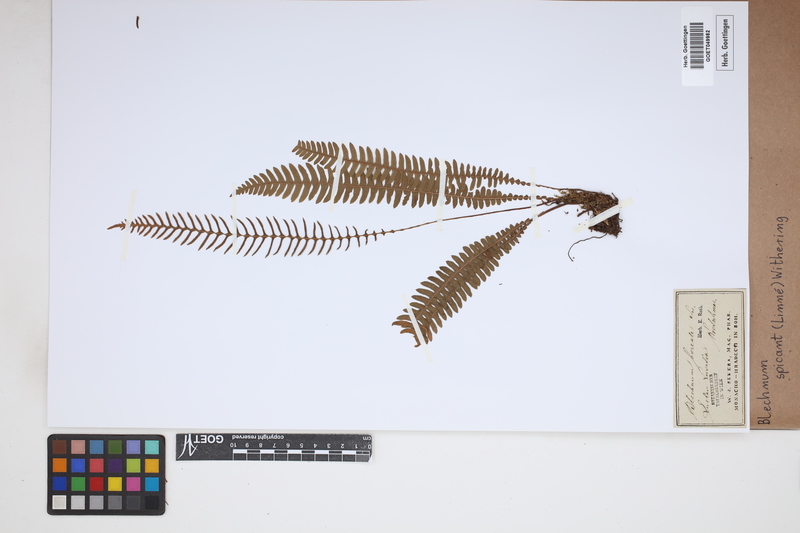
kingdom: Plantae
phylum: Tracheophyta
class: Polypodiopsida
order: Polypodiales
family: Blechnaceae
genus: Struthiopteris
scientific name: Struthiopteris spicant
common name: Deer fern
